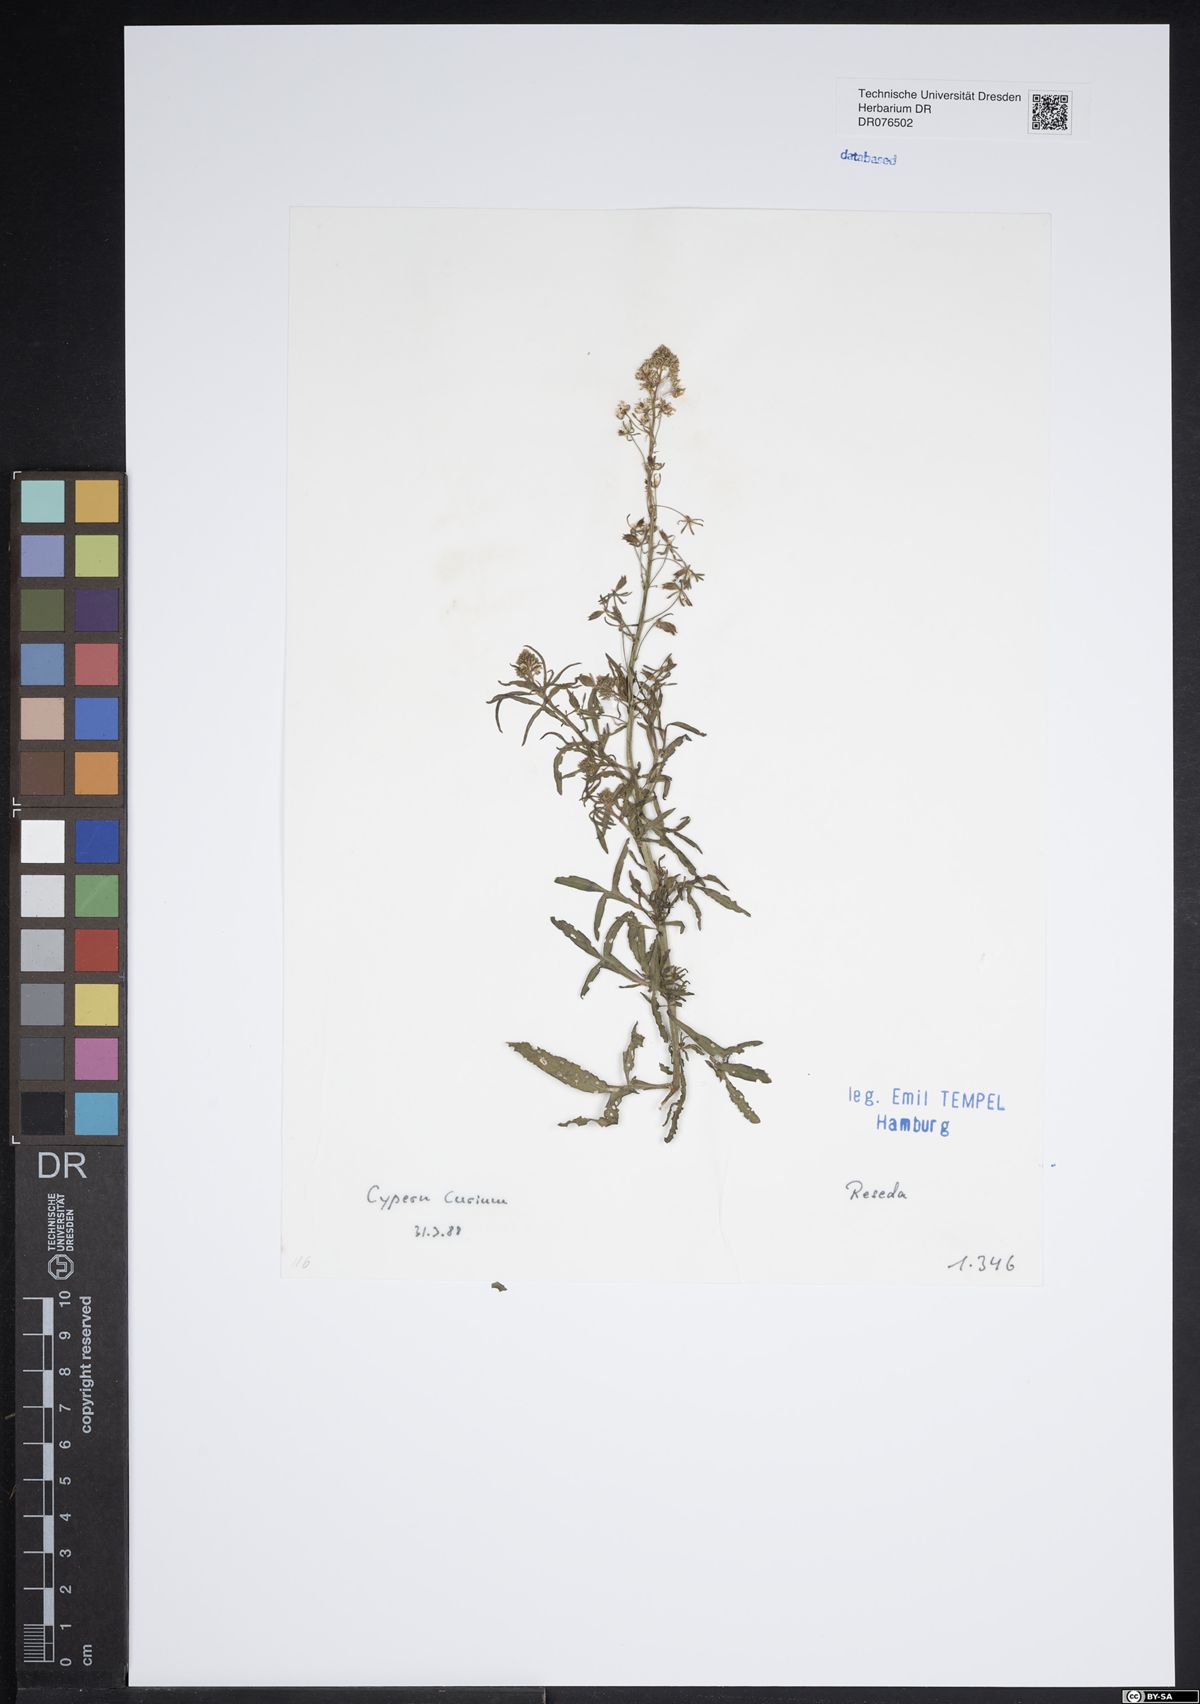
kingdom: Plantae
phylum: Tracheophyta
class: Magnoliopsida
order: Brassicales
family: Resedaceae
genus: Reseda
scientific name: Reseda
